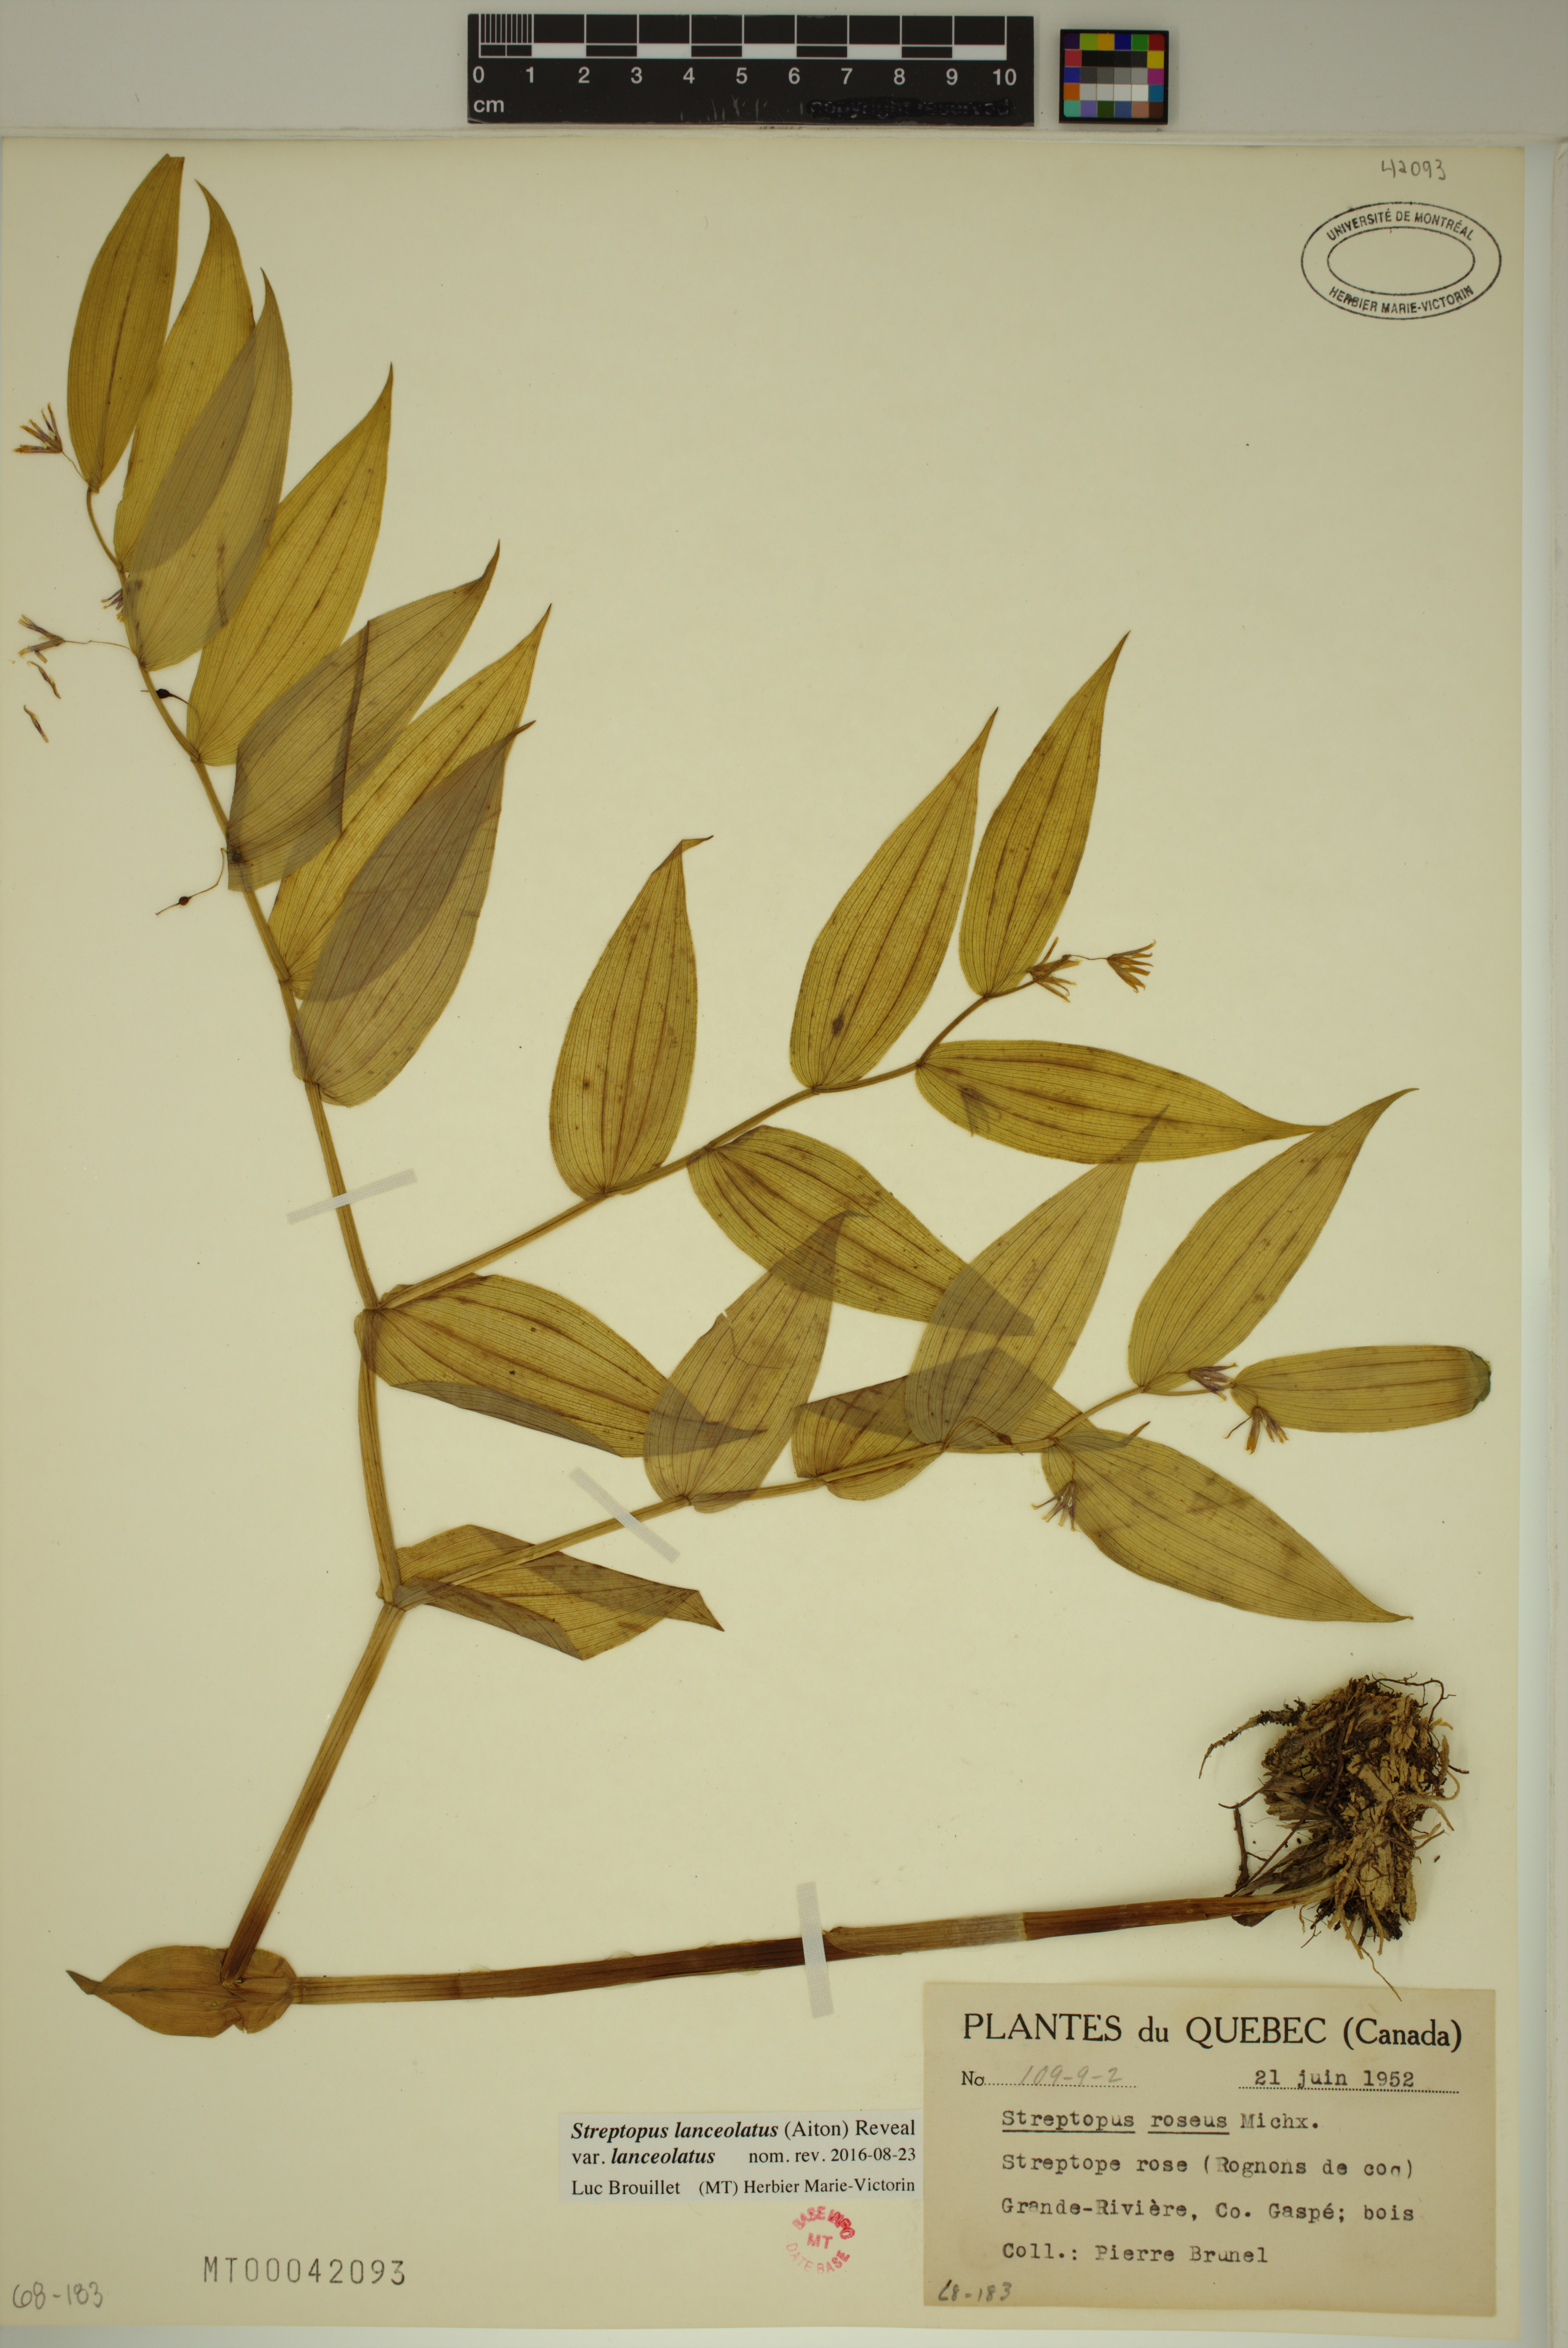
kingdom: Plantae
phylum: Tracheophyta
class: Liliopsida
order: Liliales
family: Liliaceae
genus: Streptopus
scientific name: Streptopus lanceolatus
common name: Rose mandarin
